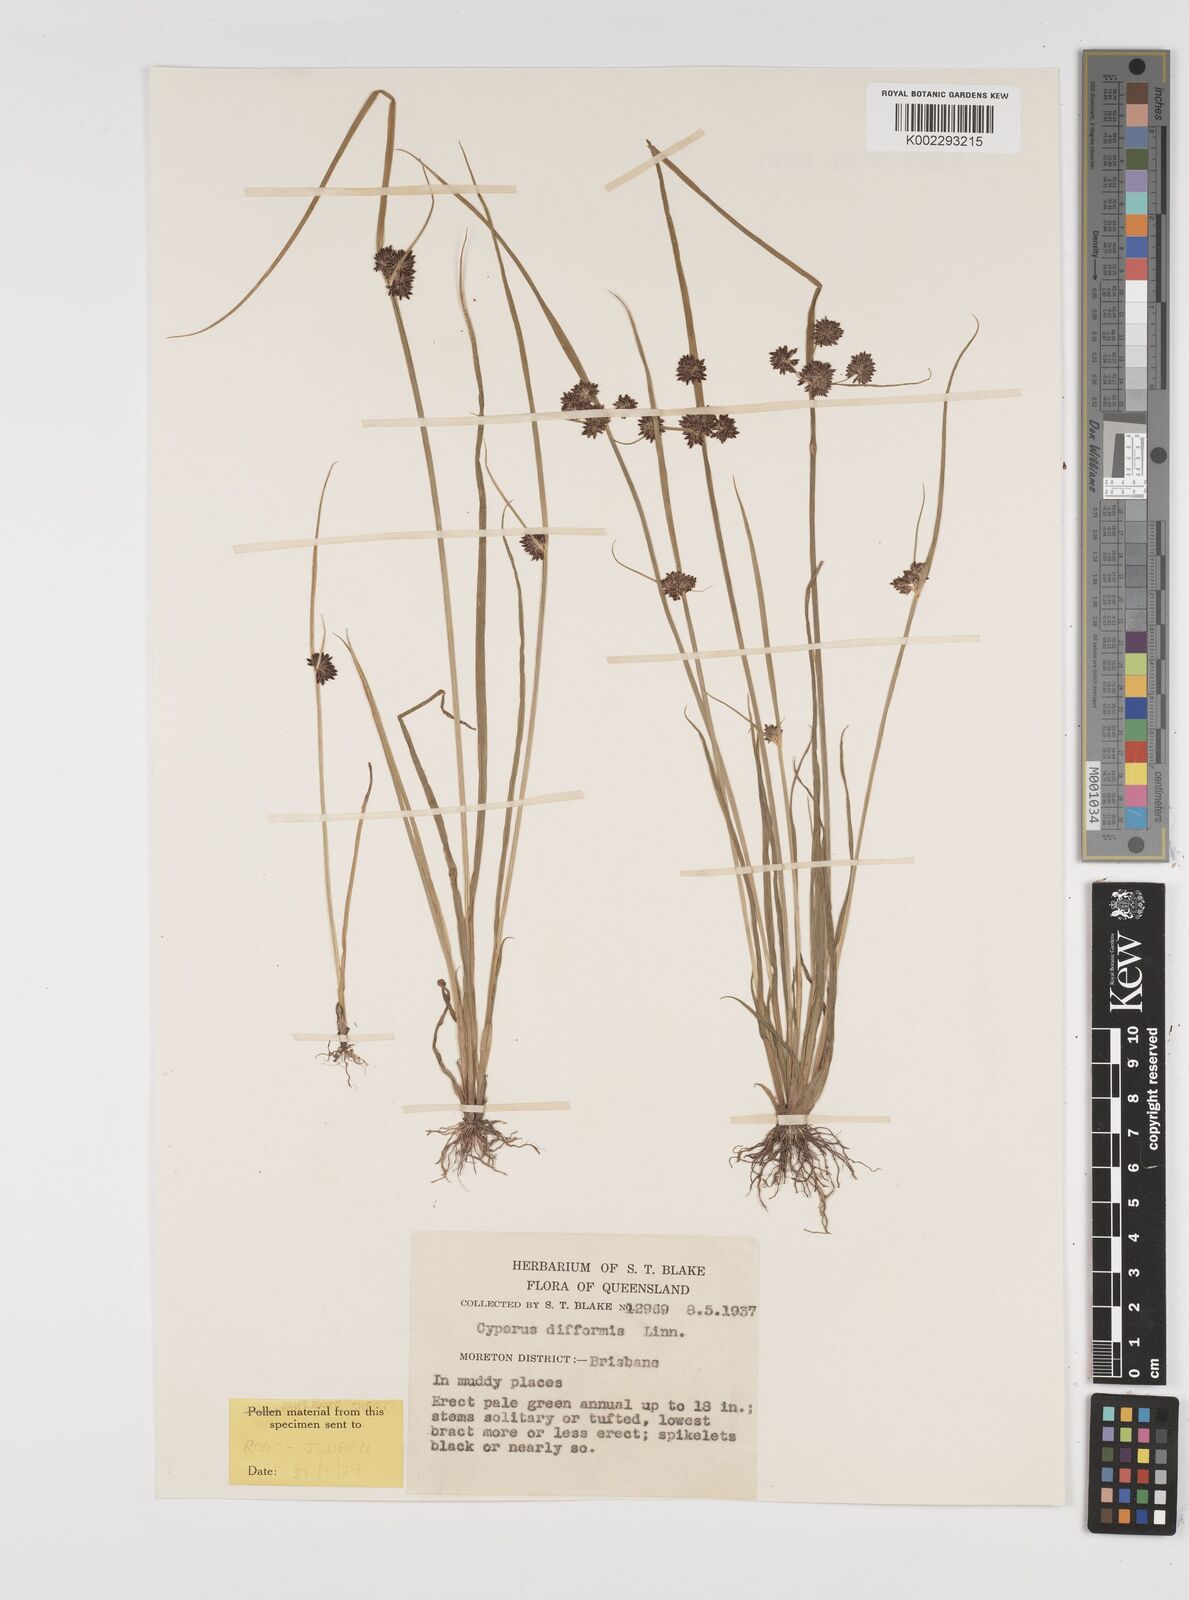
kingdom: Plantae
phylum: Tracheophyta
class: Liliopsida
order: Poales
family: Cyperaceae
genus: Cyperus
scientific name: Cyperus difformis
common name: Variable flatsedge
